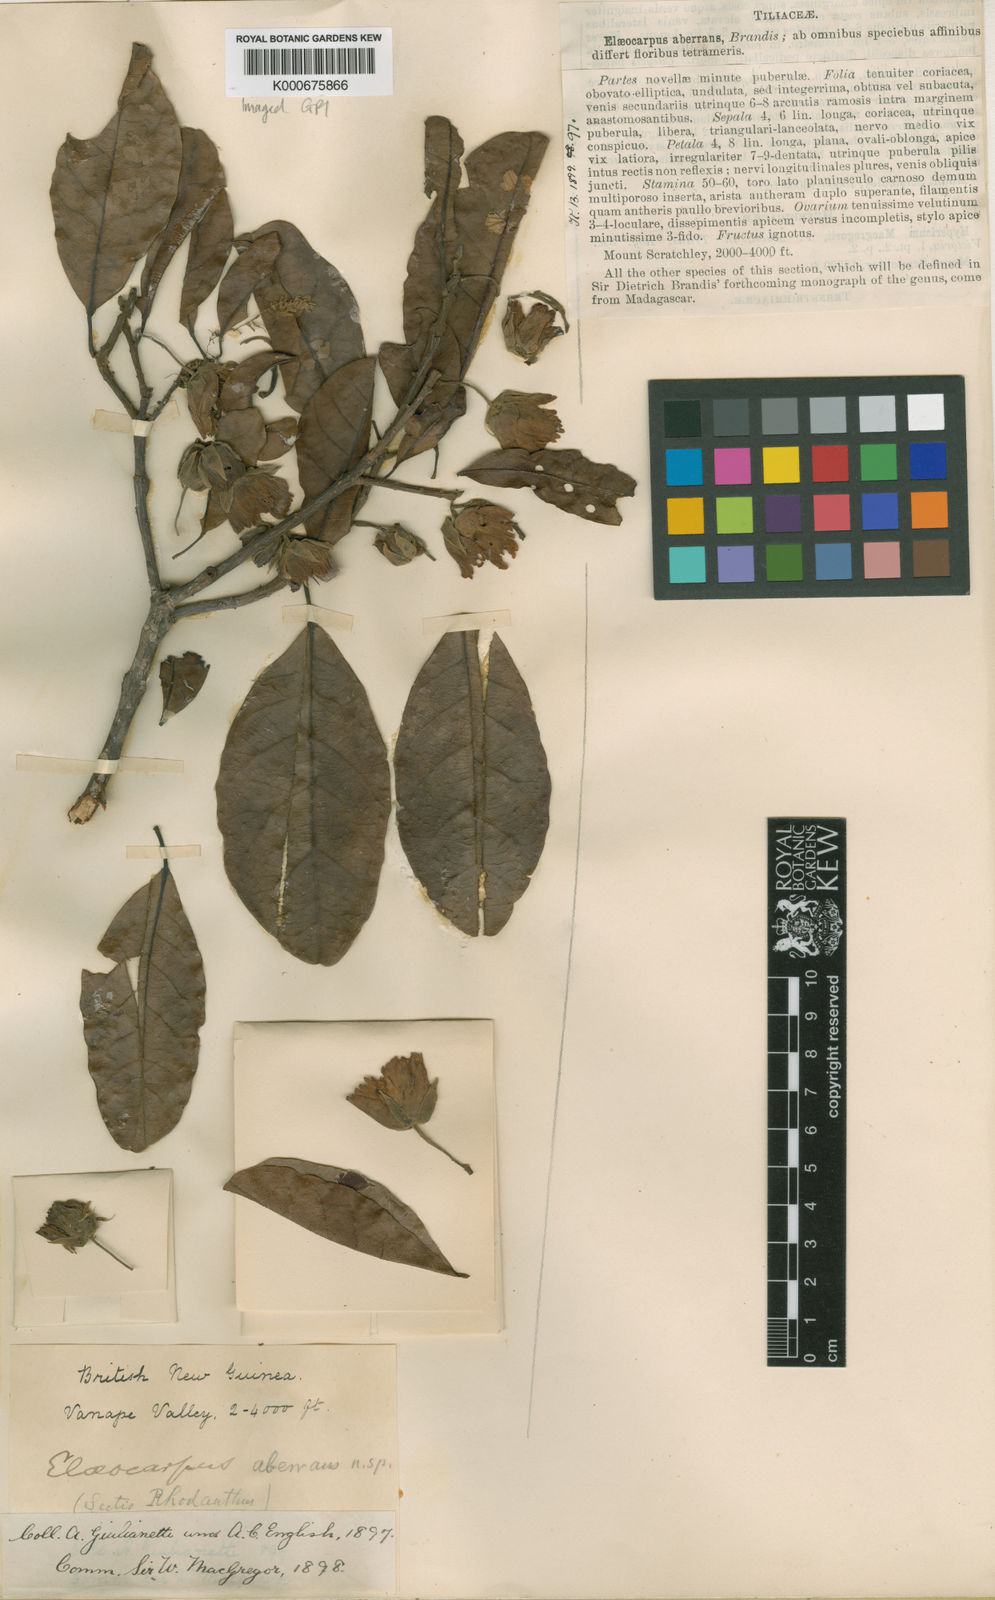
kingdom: Plantae
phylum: Tracheophyta
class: Magnoliopsida
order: Oxalidales
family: Elaeocarpaceae
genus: Sloanea
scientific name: Sloanea aberrans
